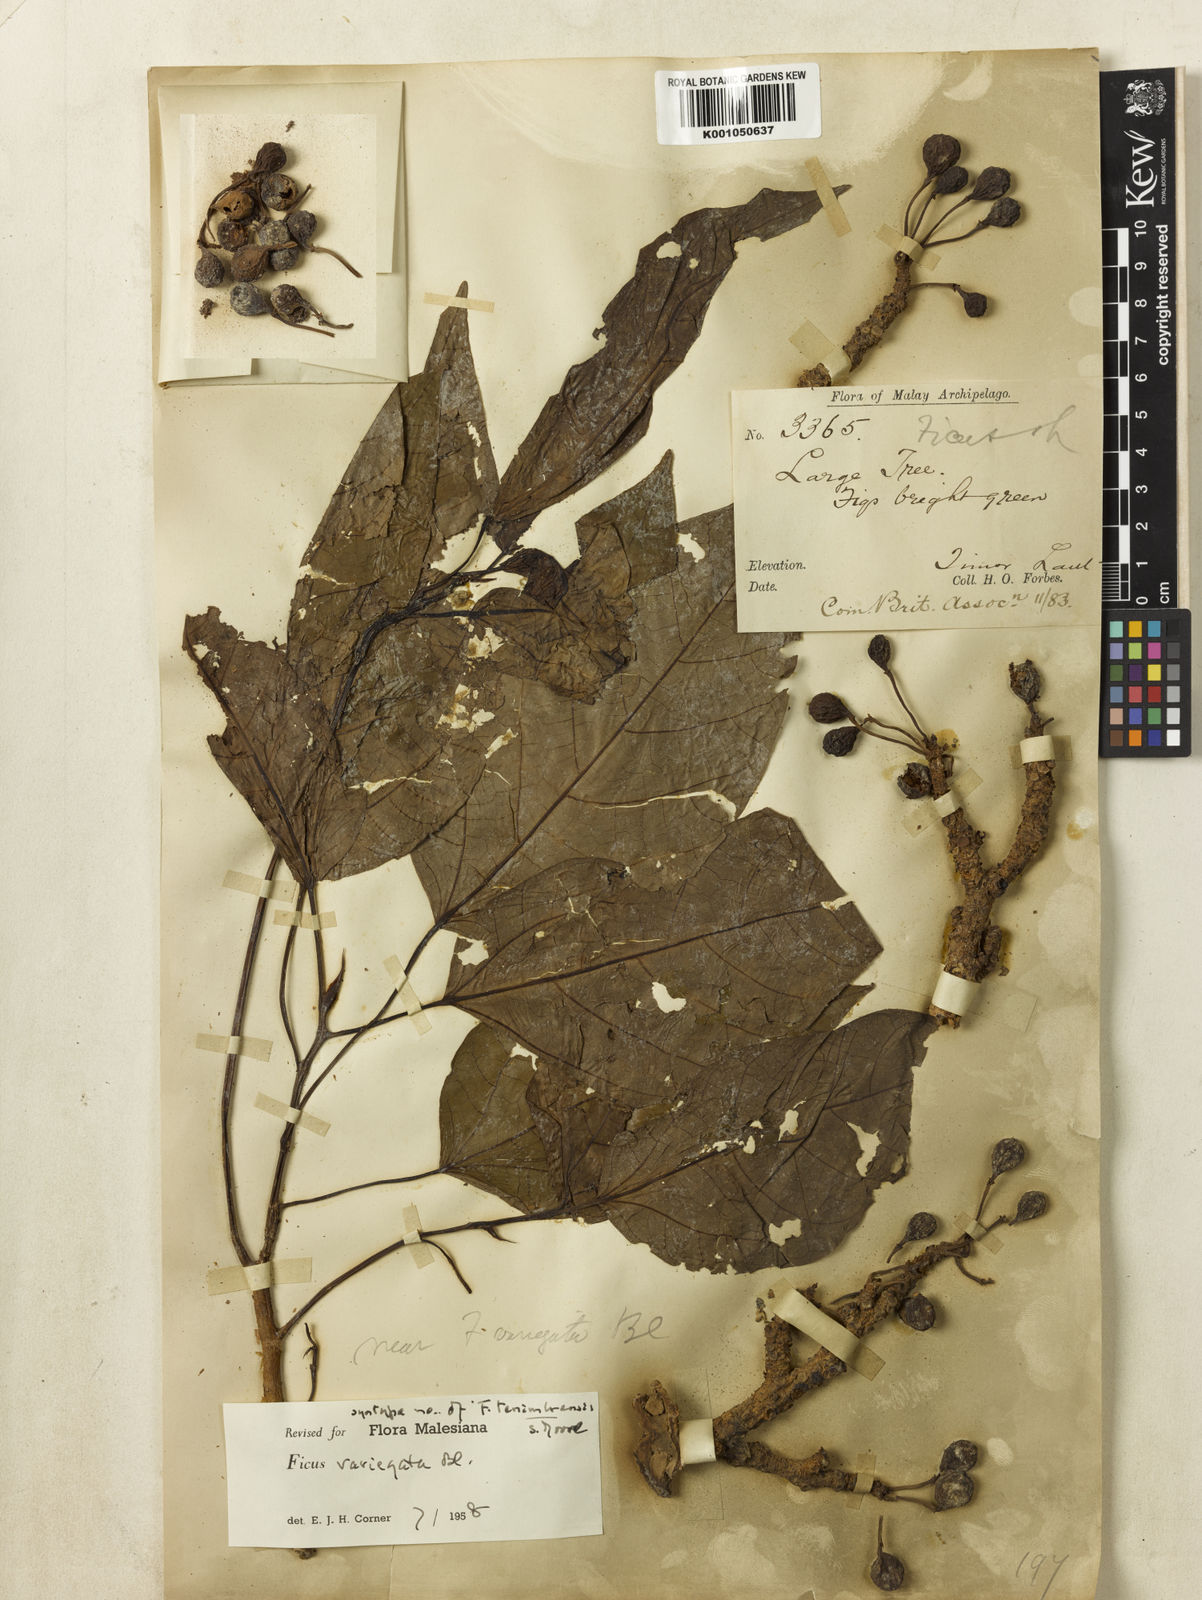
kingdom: Plantae
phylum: Tracheophyta
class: Magnoliopsida
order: Rosales
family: Moraceae
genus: Ficus
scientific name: Ficus variegata
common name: Variegated fig
